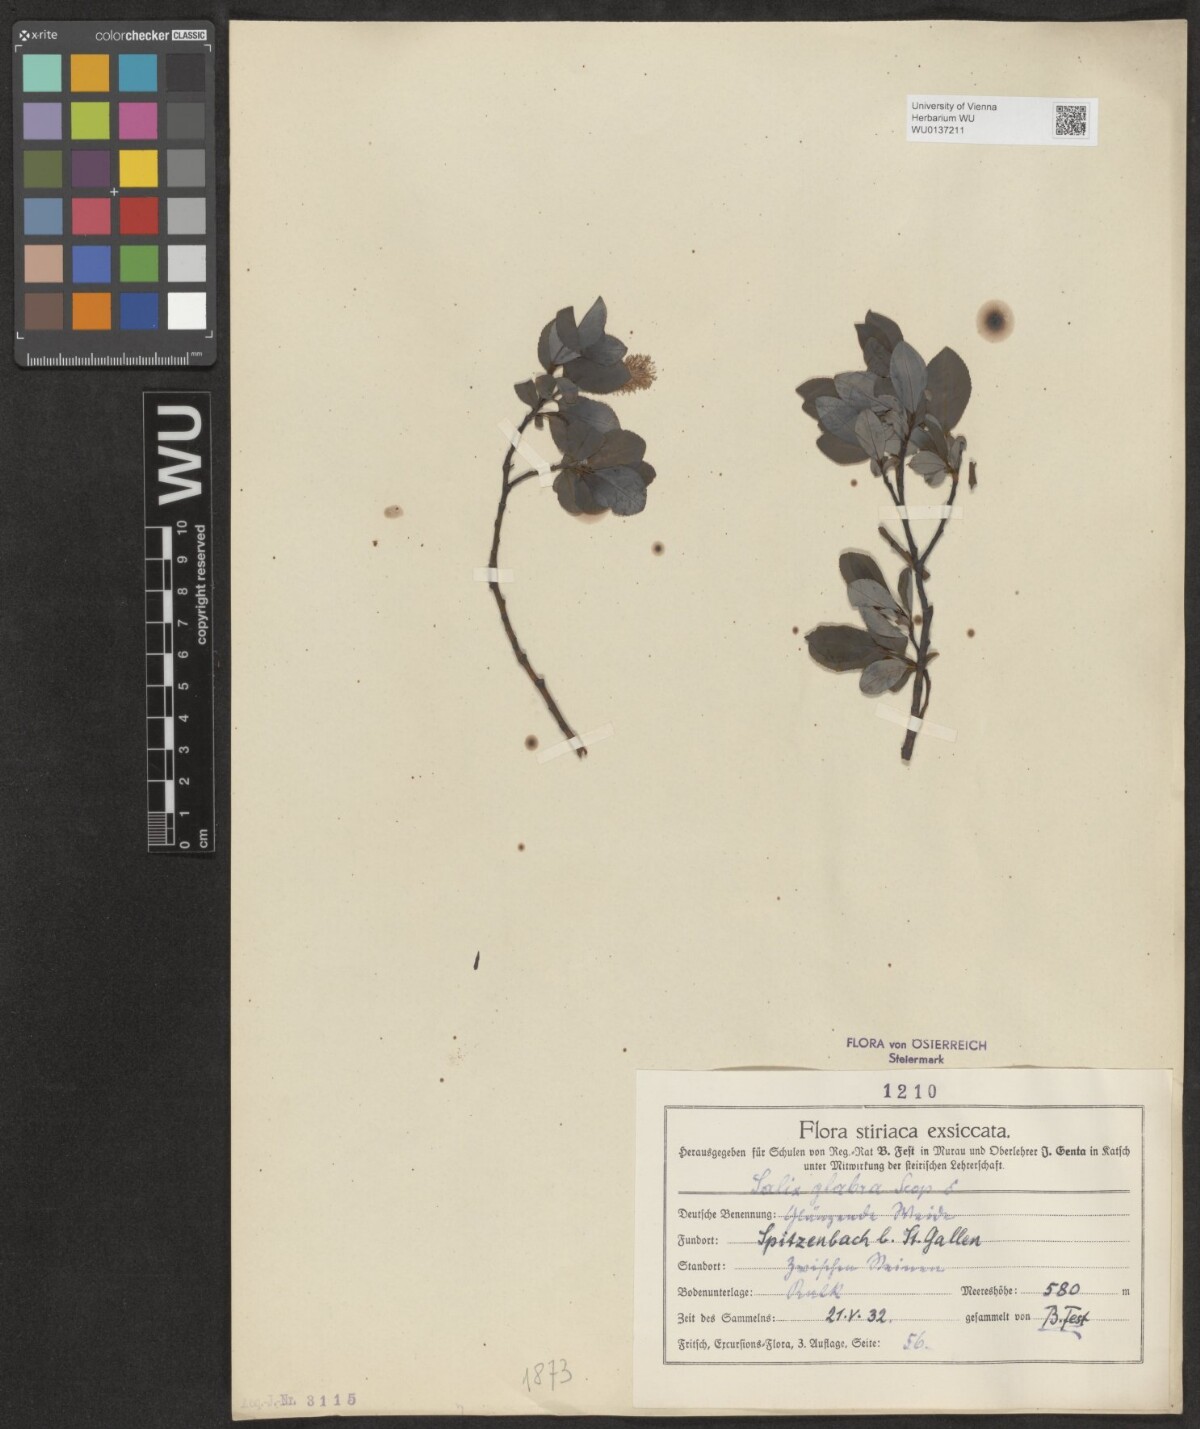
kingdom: Plantae
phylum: Tracheophyta
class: Magnoliopsida
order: Malpighiales
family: Salicaceae
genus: Salix
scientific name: Salix glabra
